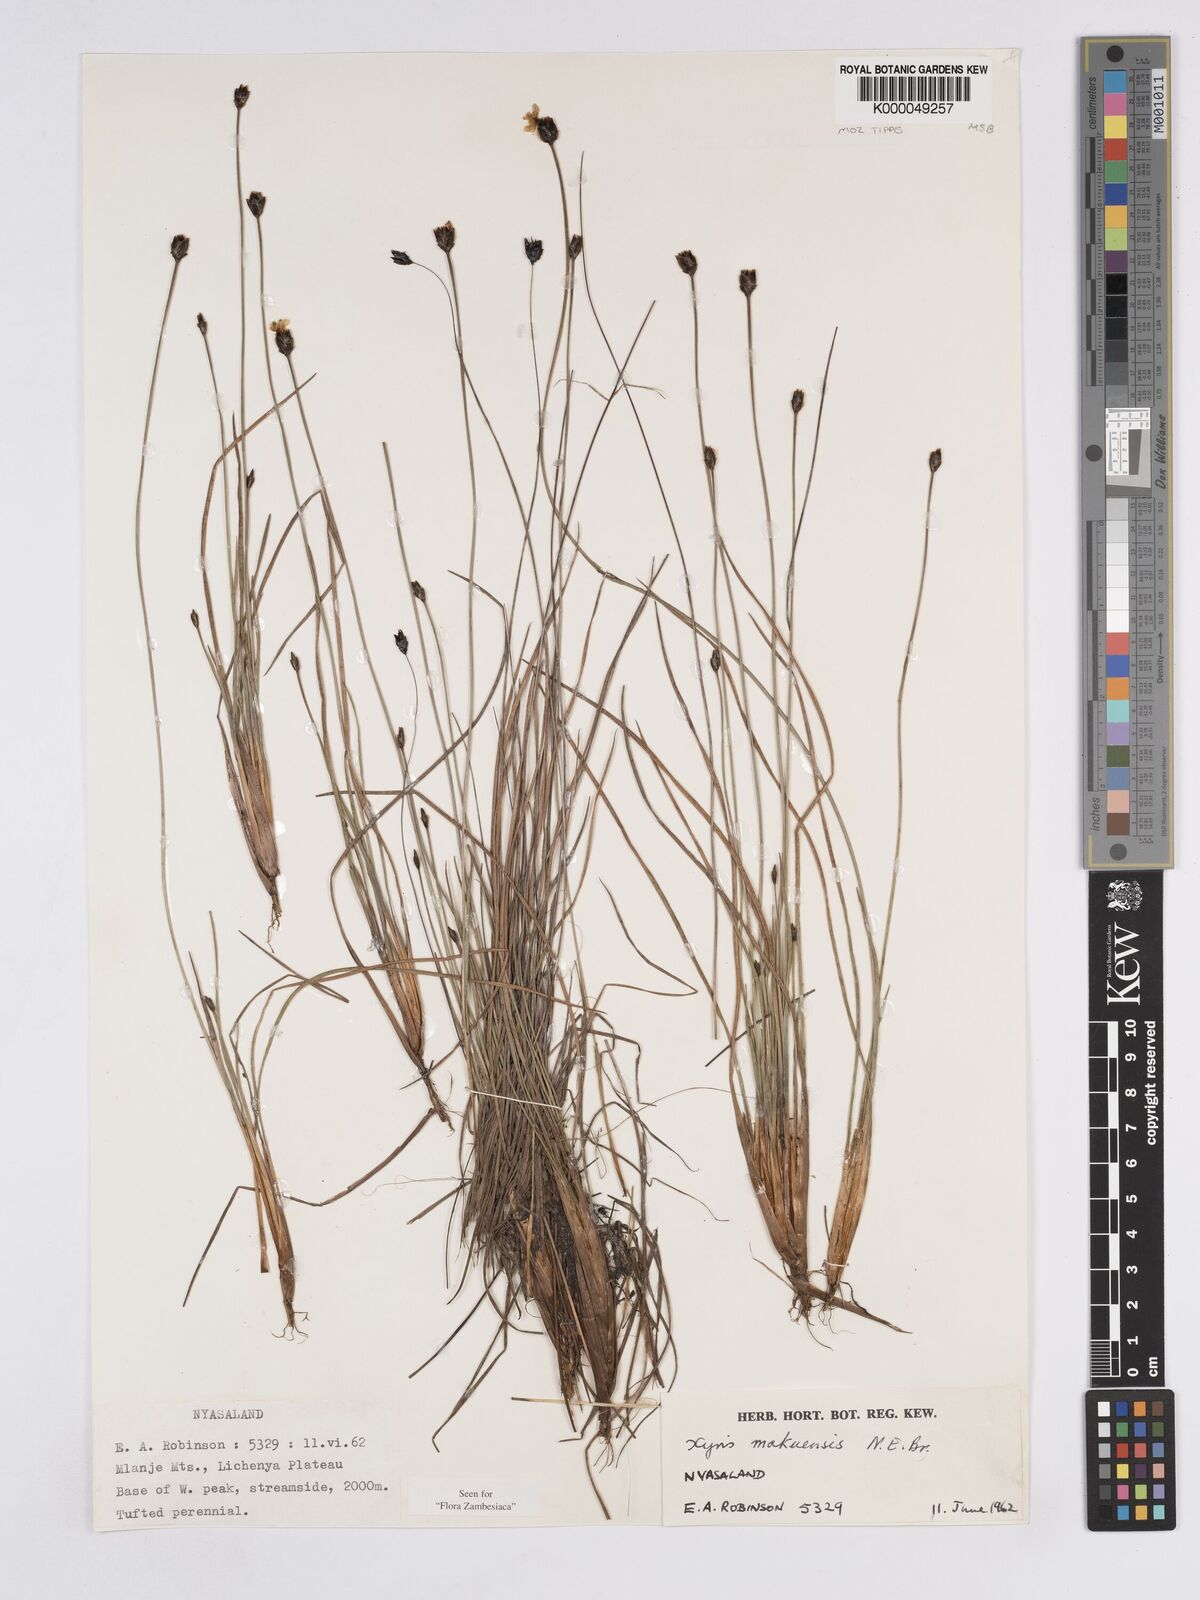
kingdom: Plantae
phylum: Tracheophyta
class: Liliopsida
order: Poales
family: Xyridaceae
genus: Xyris
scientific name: Xyris makuensis
